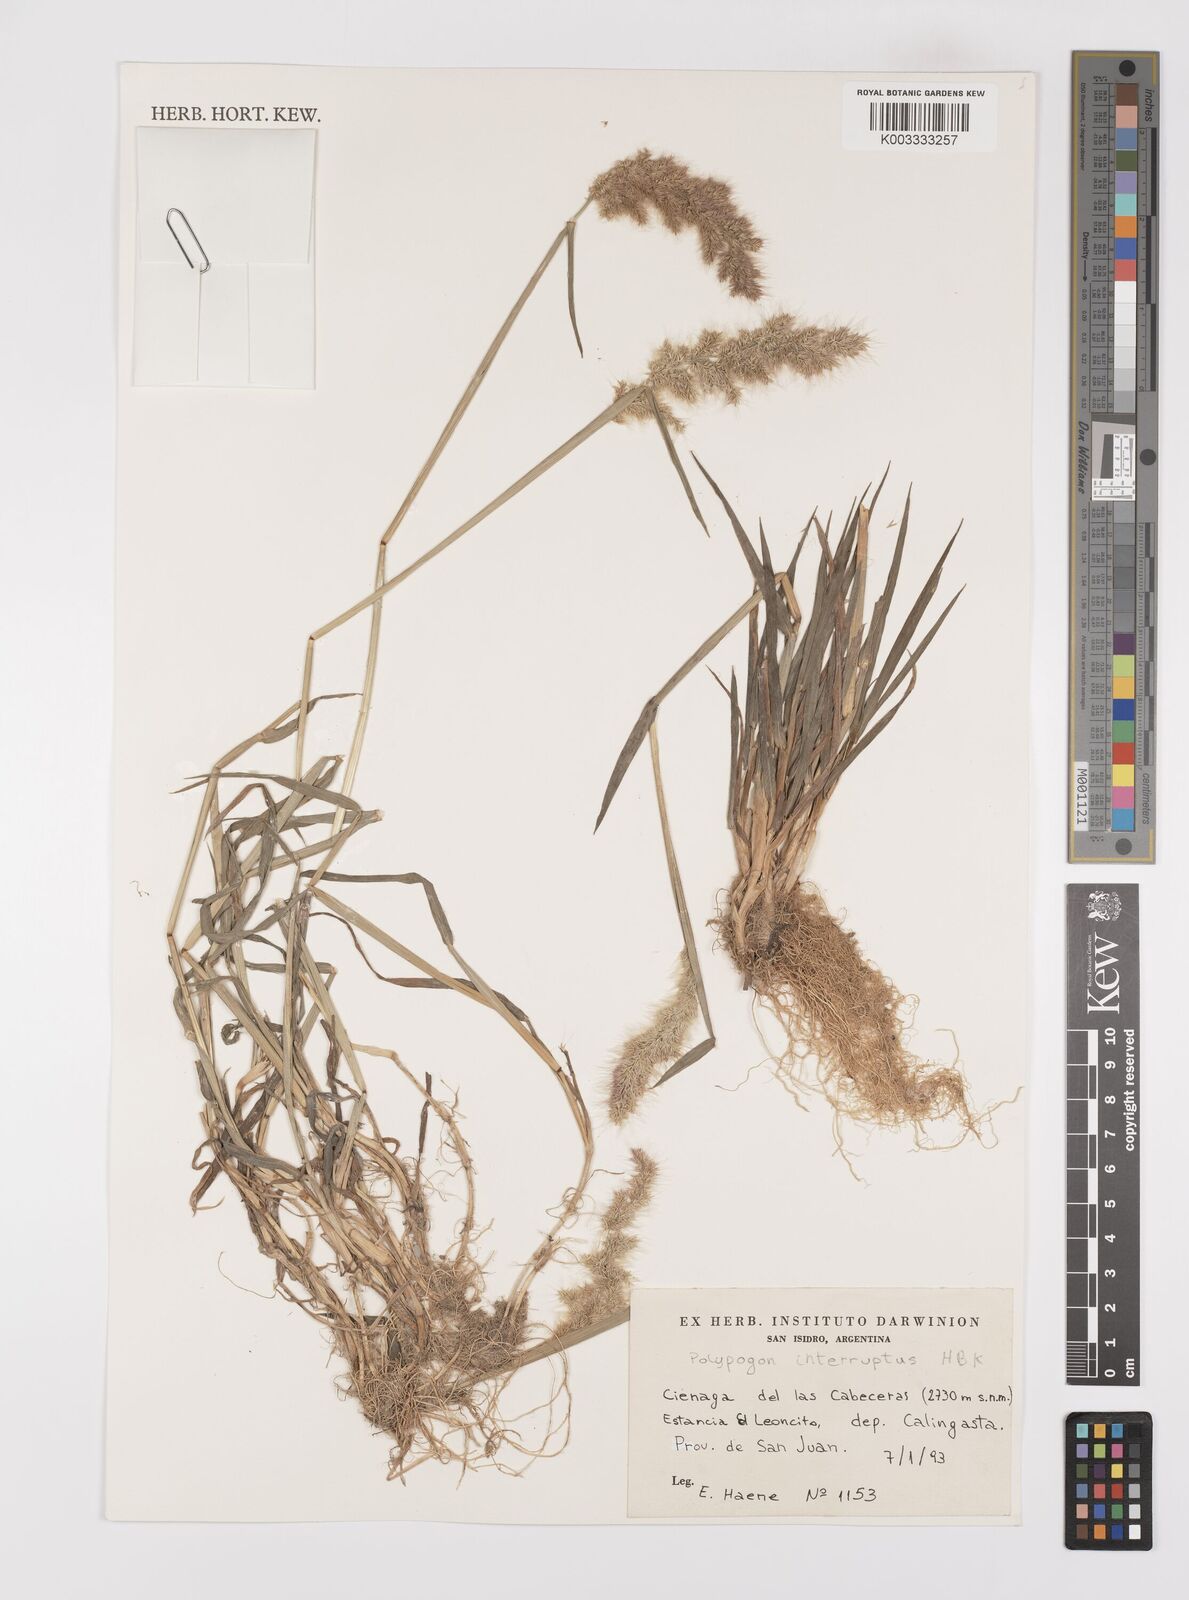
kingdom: Plantae
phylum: Tracheophyta
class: Liliopsida
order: Poales
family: Poaceae
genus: Polypogon
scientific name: Polypogon interruptus
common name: Ditch polypogon
